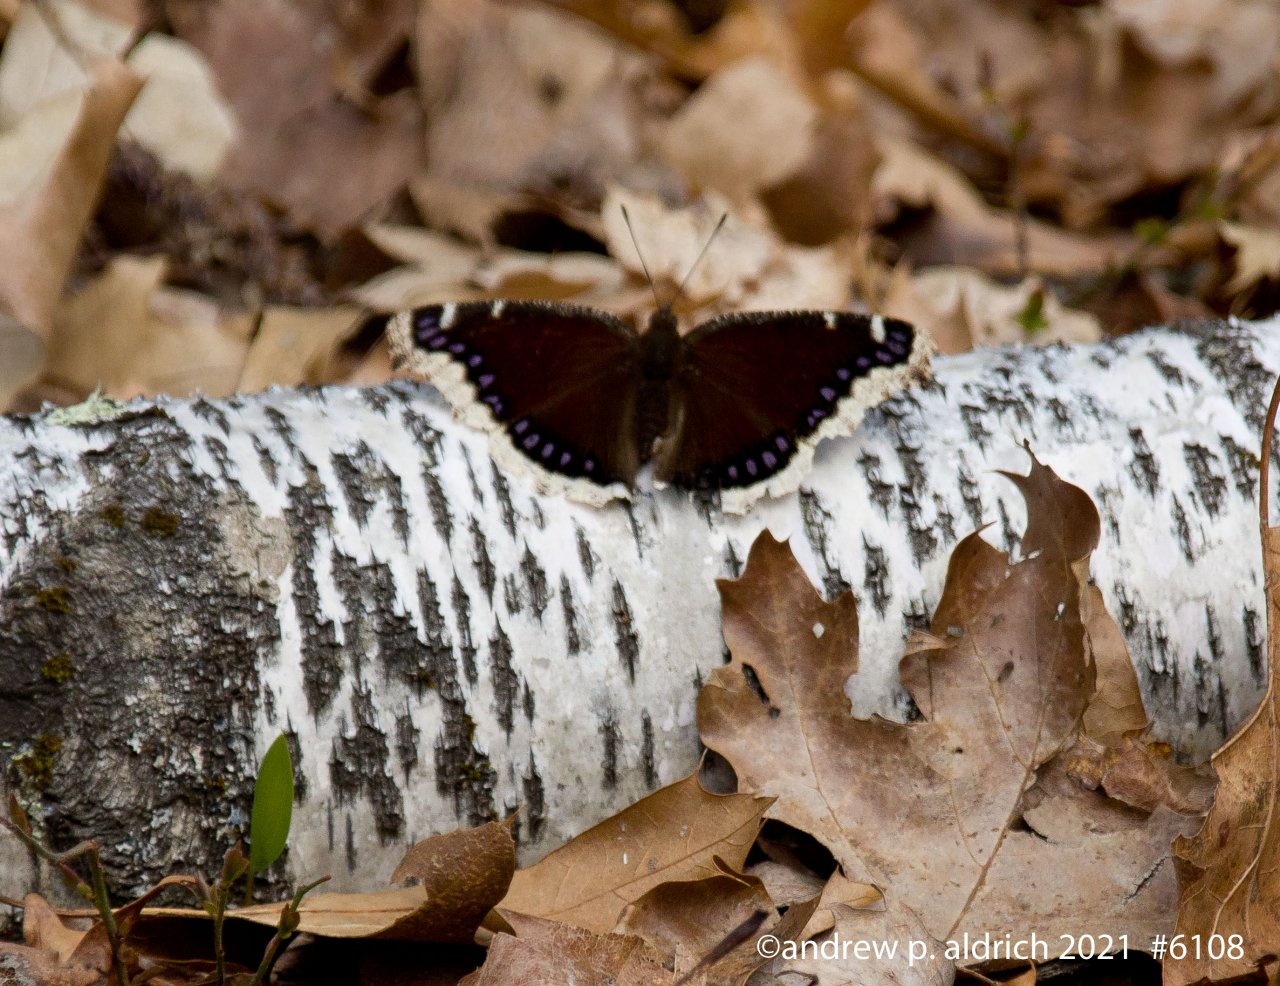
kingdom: Animalia
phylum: Arthropoda
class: Insecta
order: Lepidoptera
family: Nymphalidae
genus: Nymphalis
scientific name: Nymphalis antiopa
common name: Mourning Cloak
